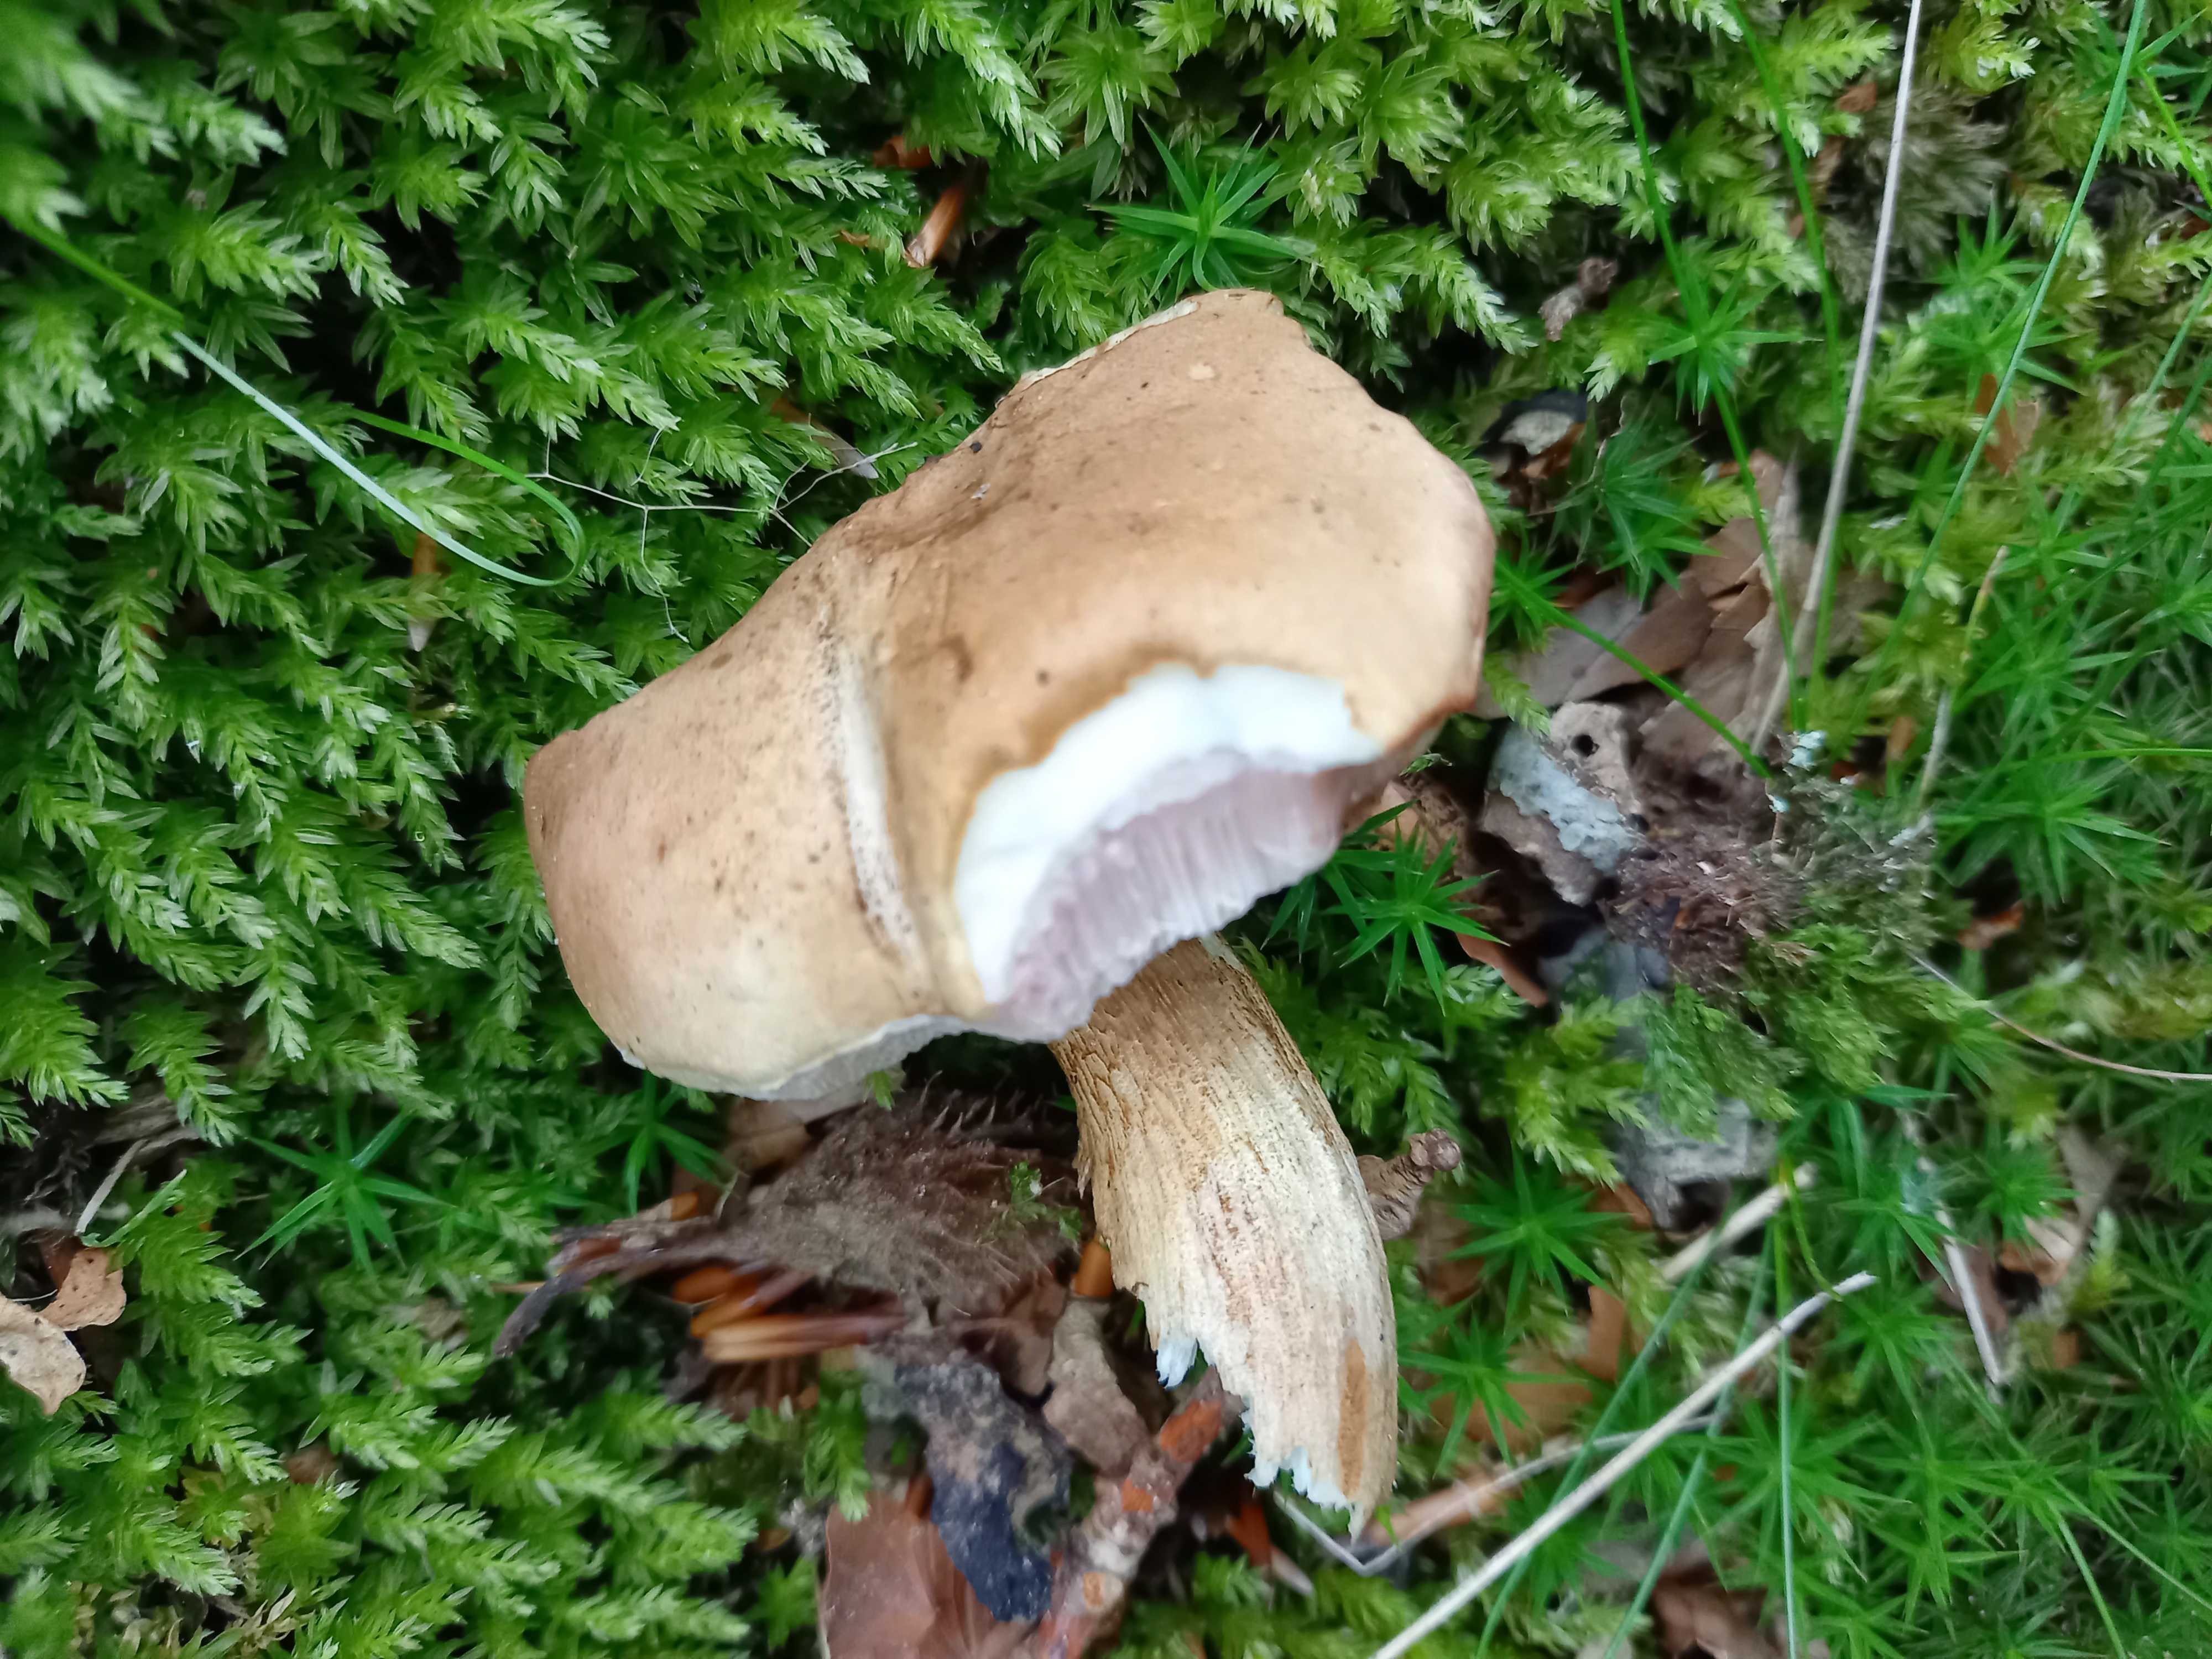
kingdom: Fungi
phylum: Basidiomycota
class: Agaricomycetes
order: Boletales
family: Boletaceae
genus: Tylopilus
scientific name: Tylopilus felleus
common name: galderørhat
